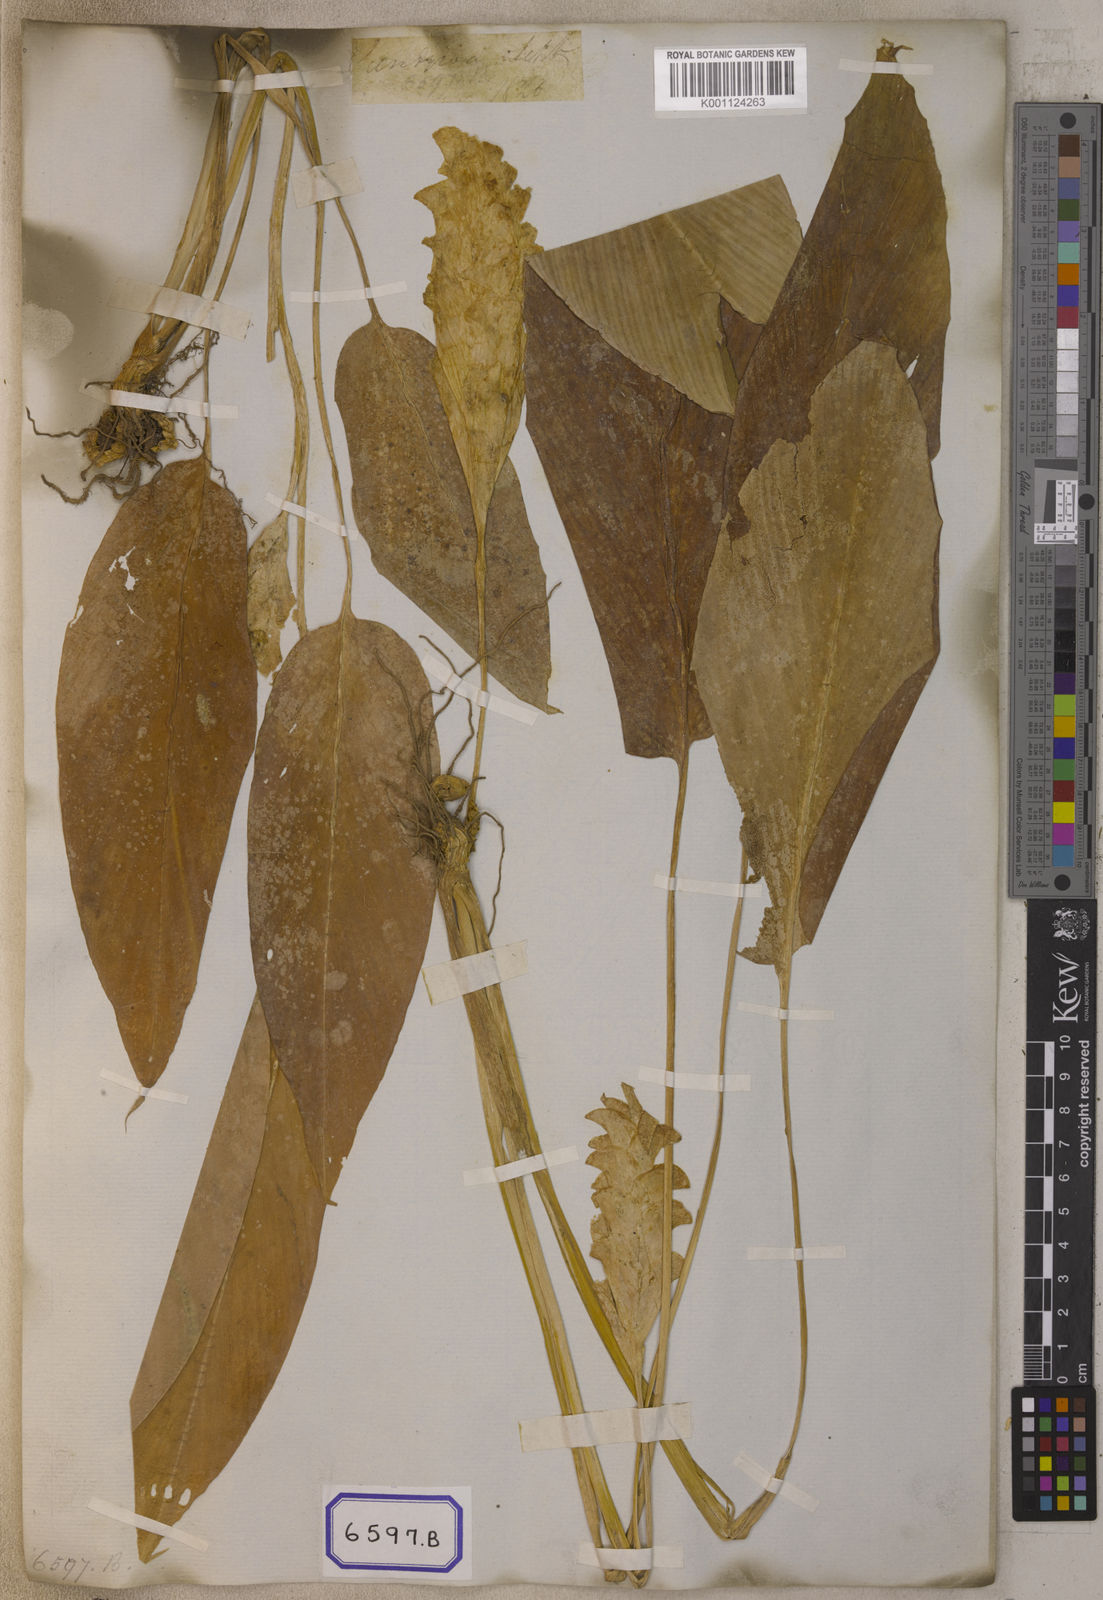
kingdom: Plantae
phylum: Tracheophyta
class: Liliopsida
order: Zingiberales
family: Zingiberaceae
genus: Curcuma
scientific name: Curcuma roscoeana
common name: Jewel of burma
